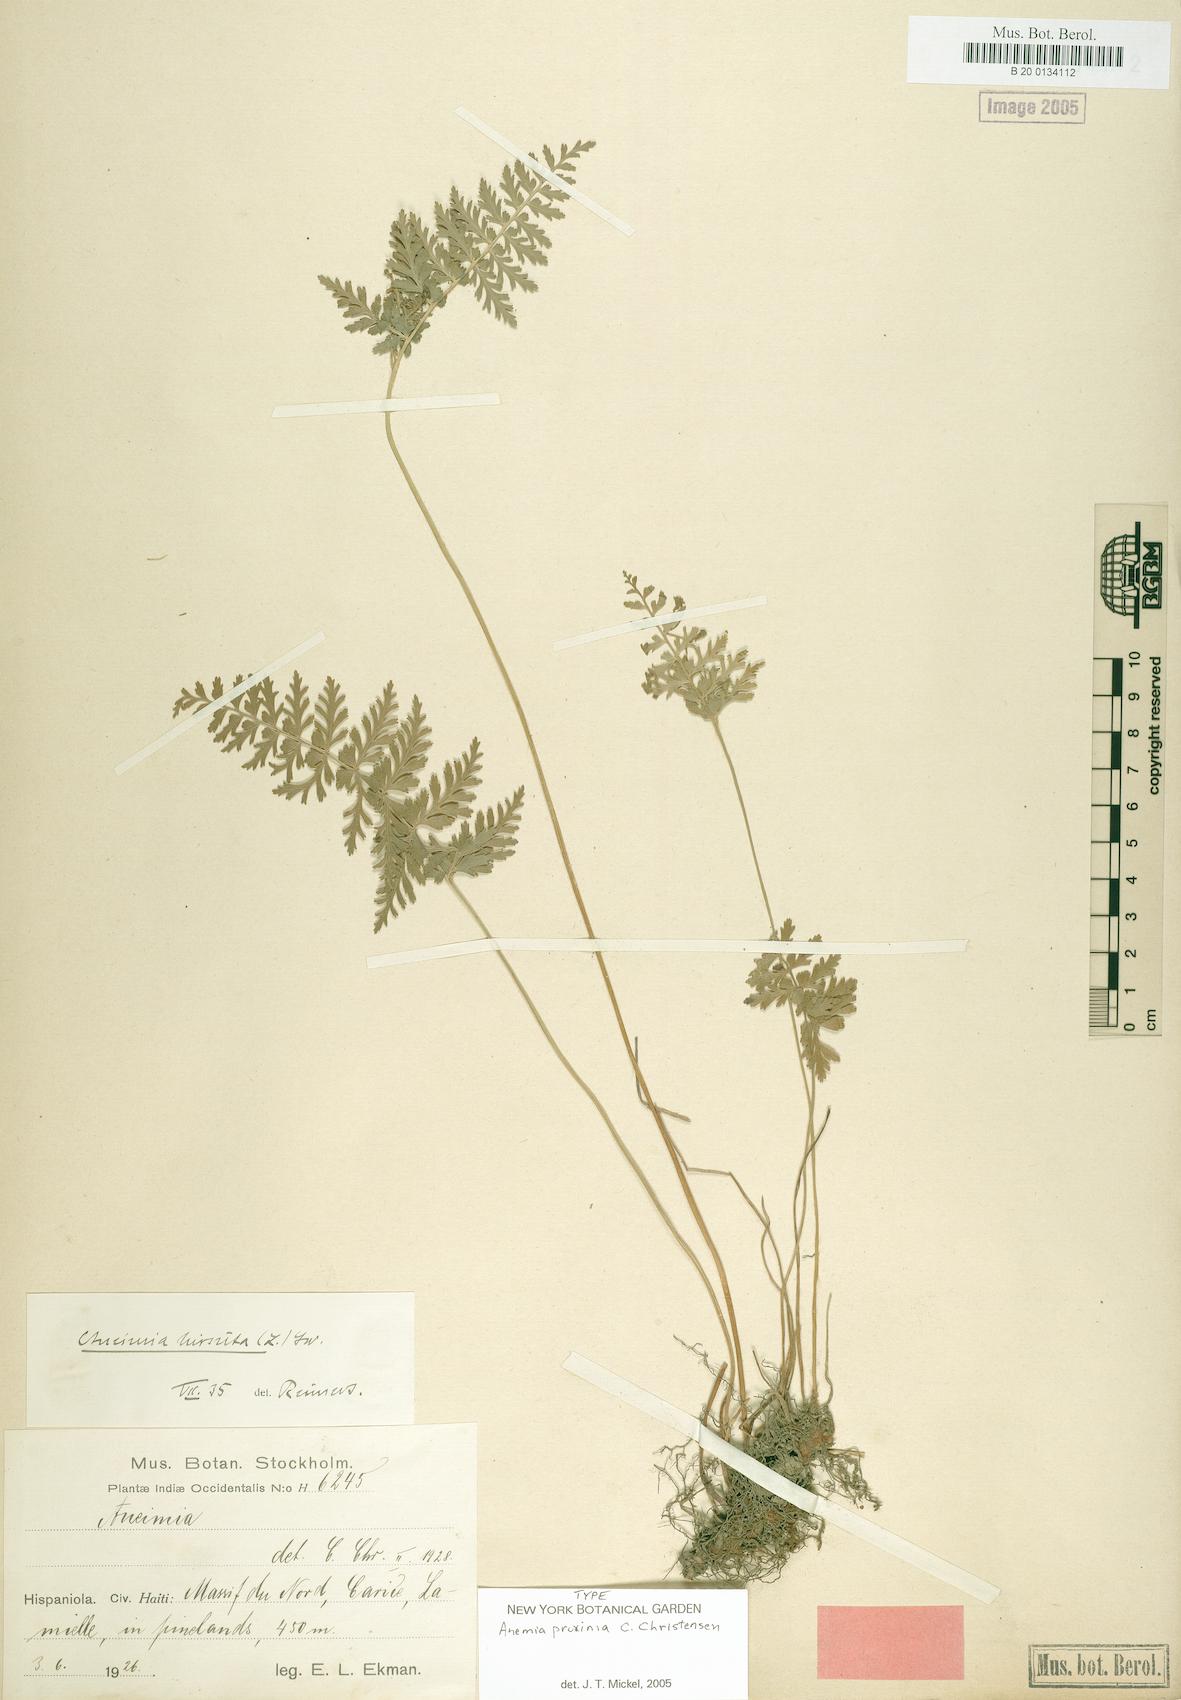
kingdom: Plantae
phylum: Tracheophyta
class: Polypodiopsida
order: Schizaeales
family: Anemiaceae
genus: Anemia
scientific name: Anemia hirsuta
